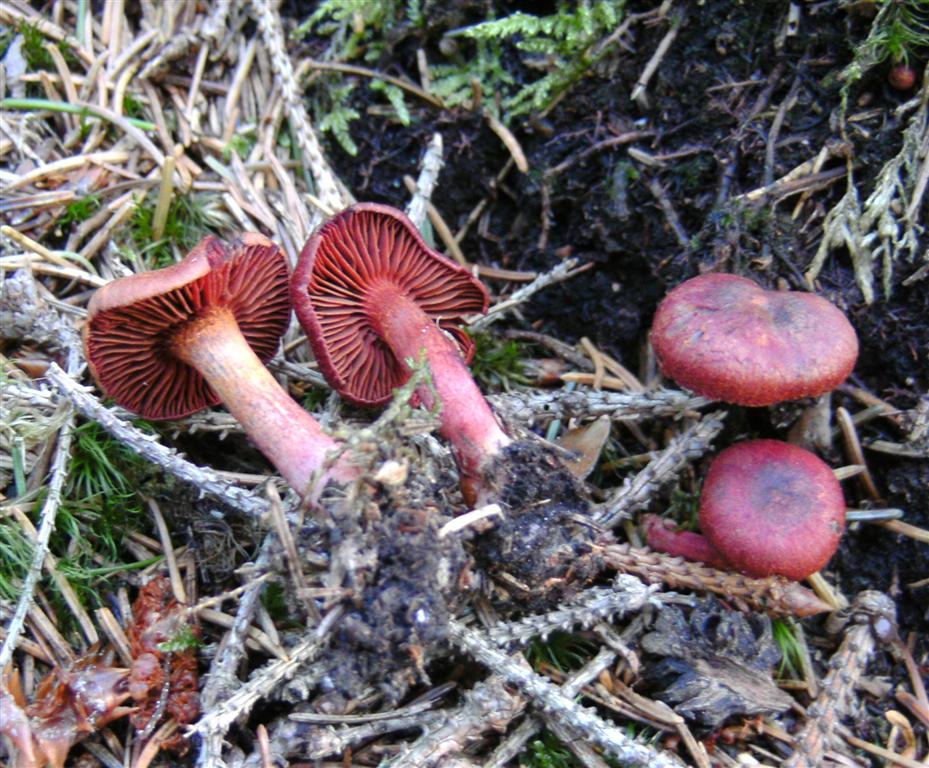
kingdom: Fungi
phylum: Basidiomycota
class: Agaricomycetes
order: Agaricales
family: Cortinariaceae
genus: Cortinarius
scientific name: Cortinarius sanguineus
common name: blodrød slørhat
